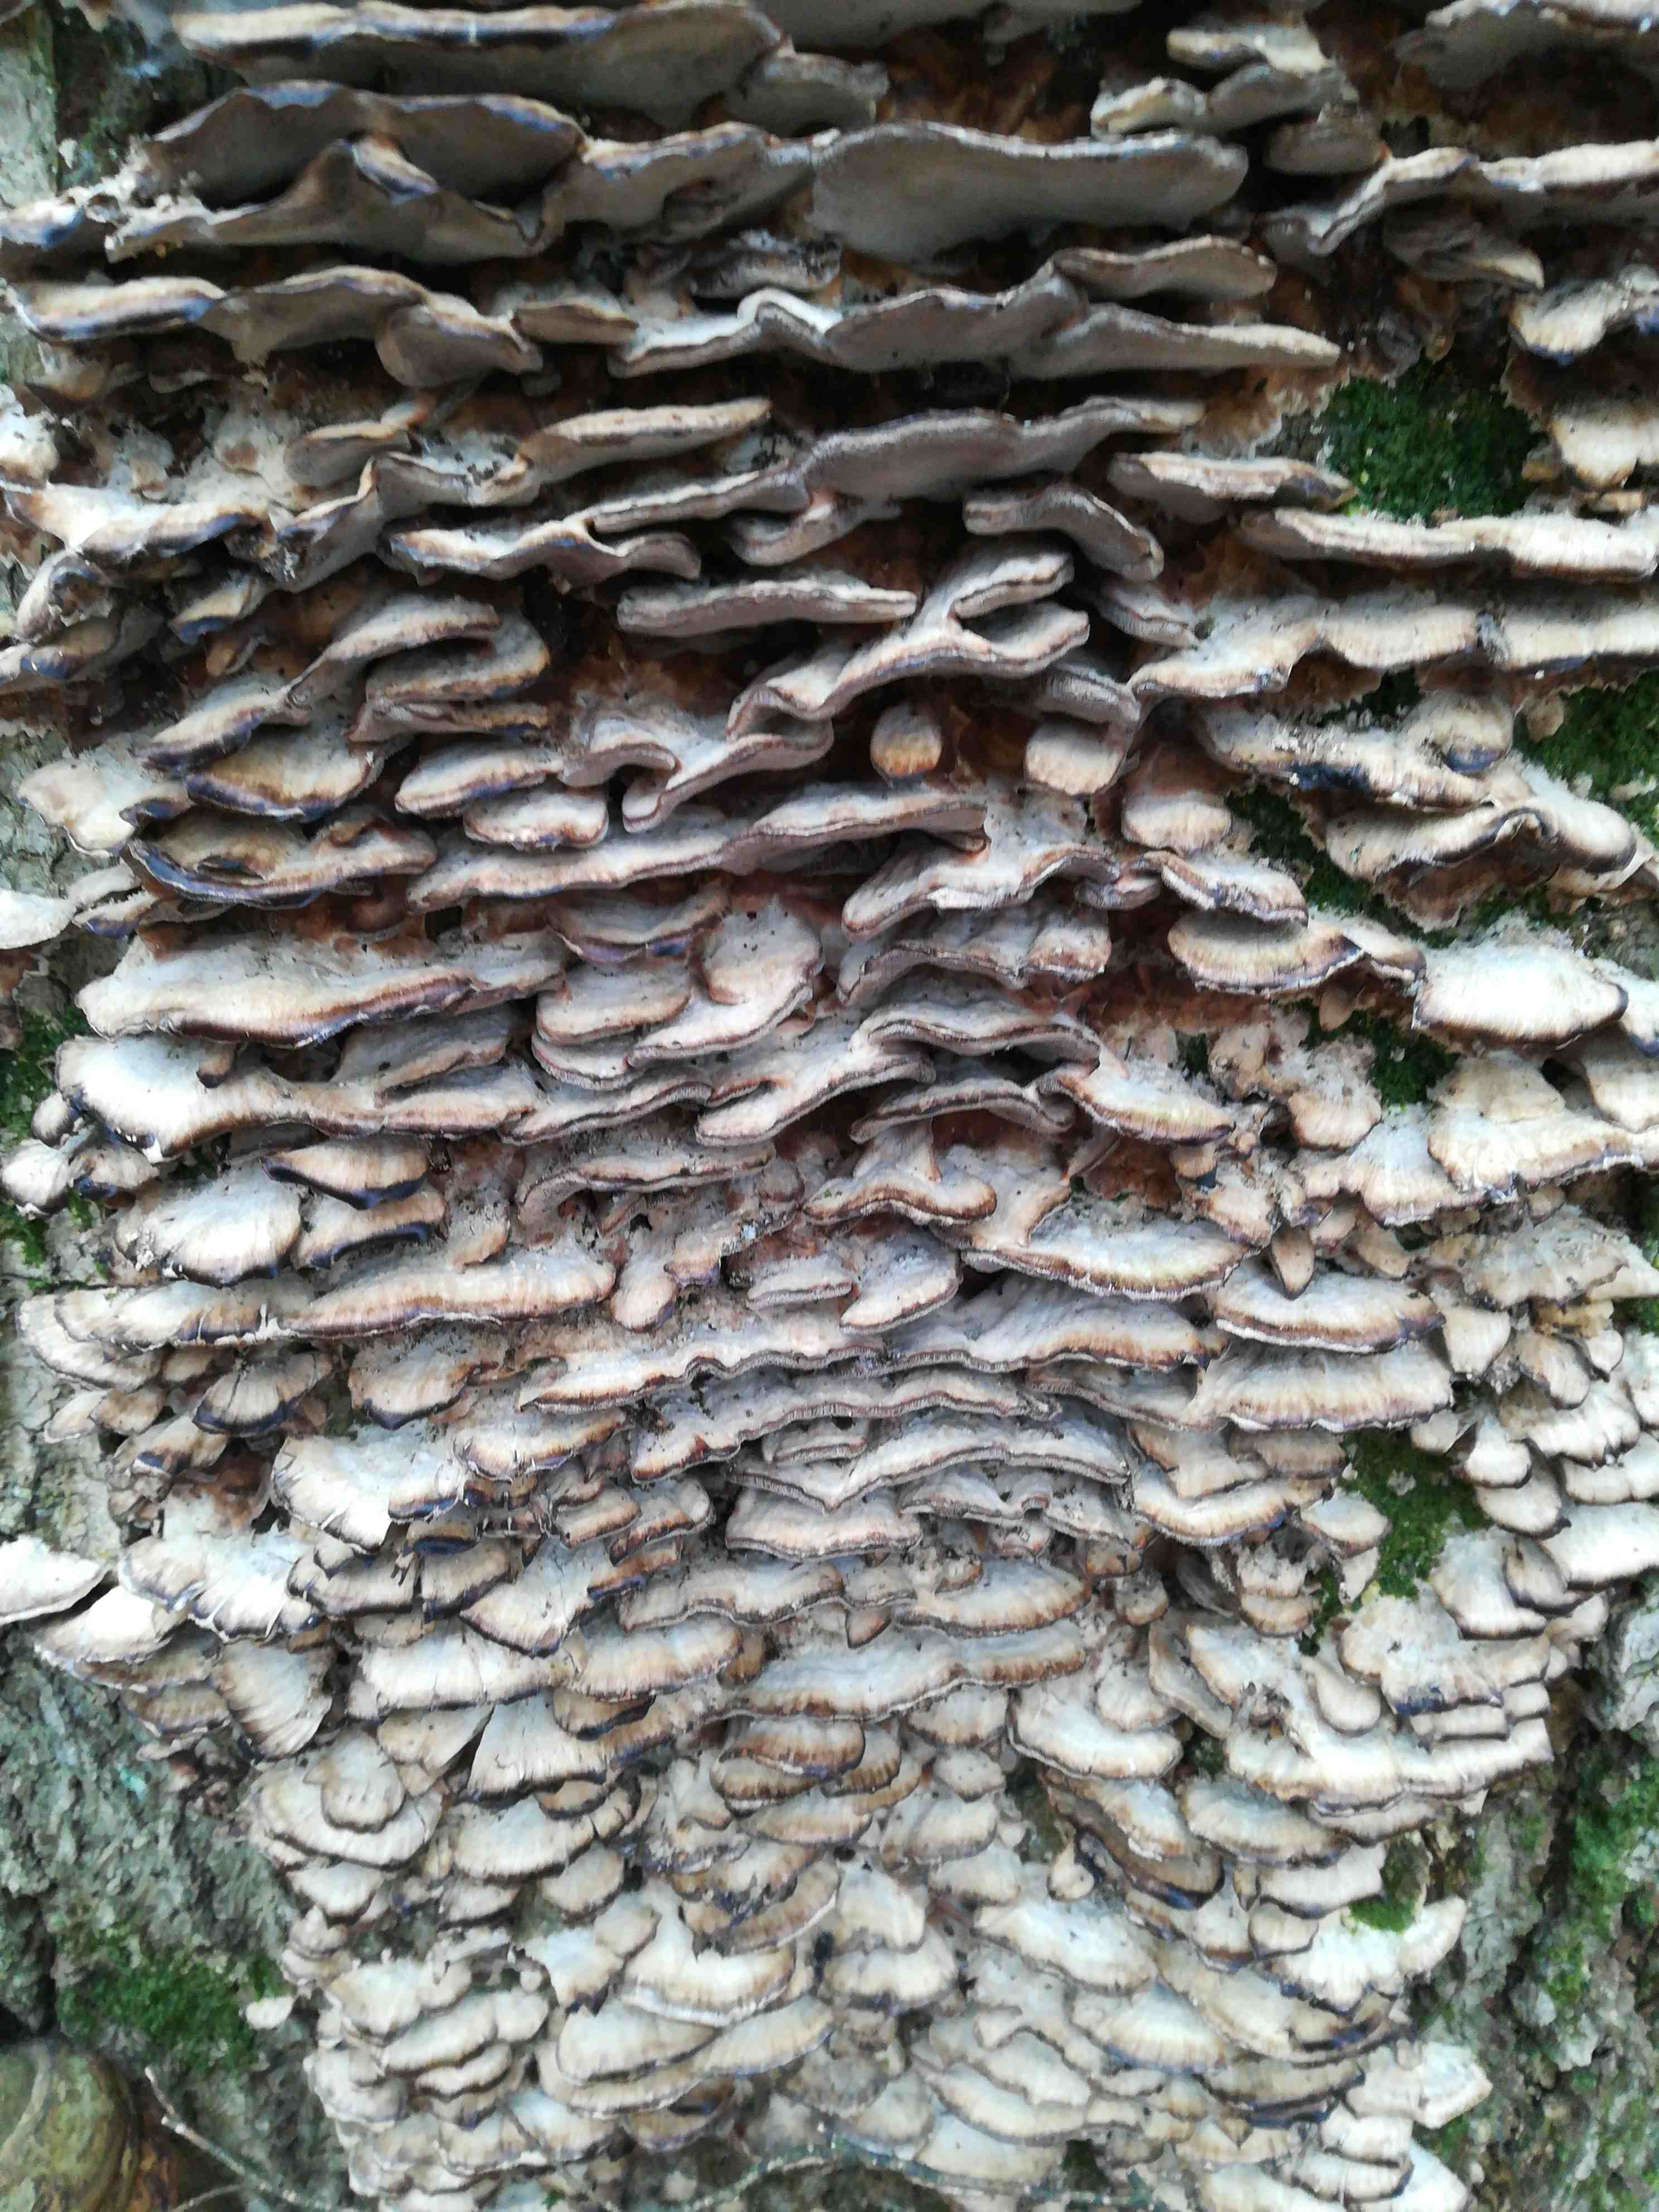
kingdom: Fungi
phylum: Basidiomycota
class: Agaricomycetes
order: Polyporales
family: Phanerochaetaceae
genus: Bjerkandera
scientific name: Bjerkandera adusta
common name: sveden sodporesvamp
